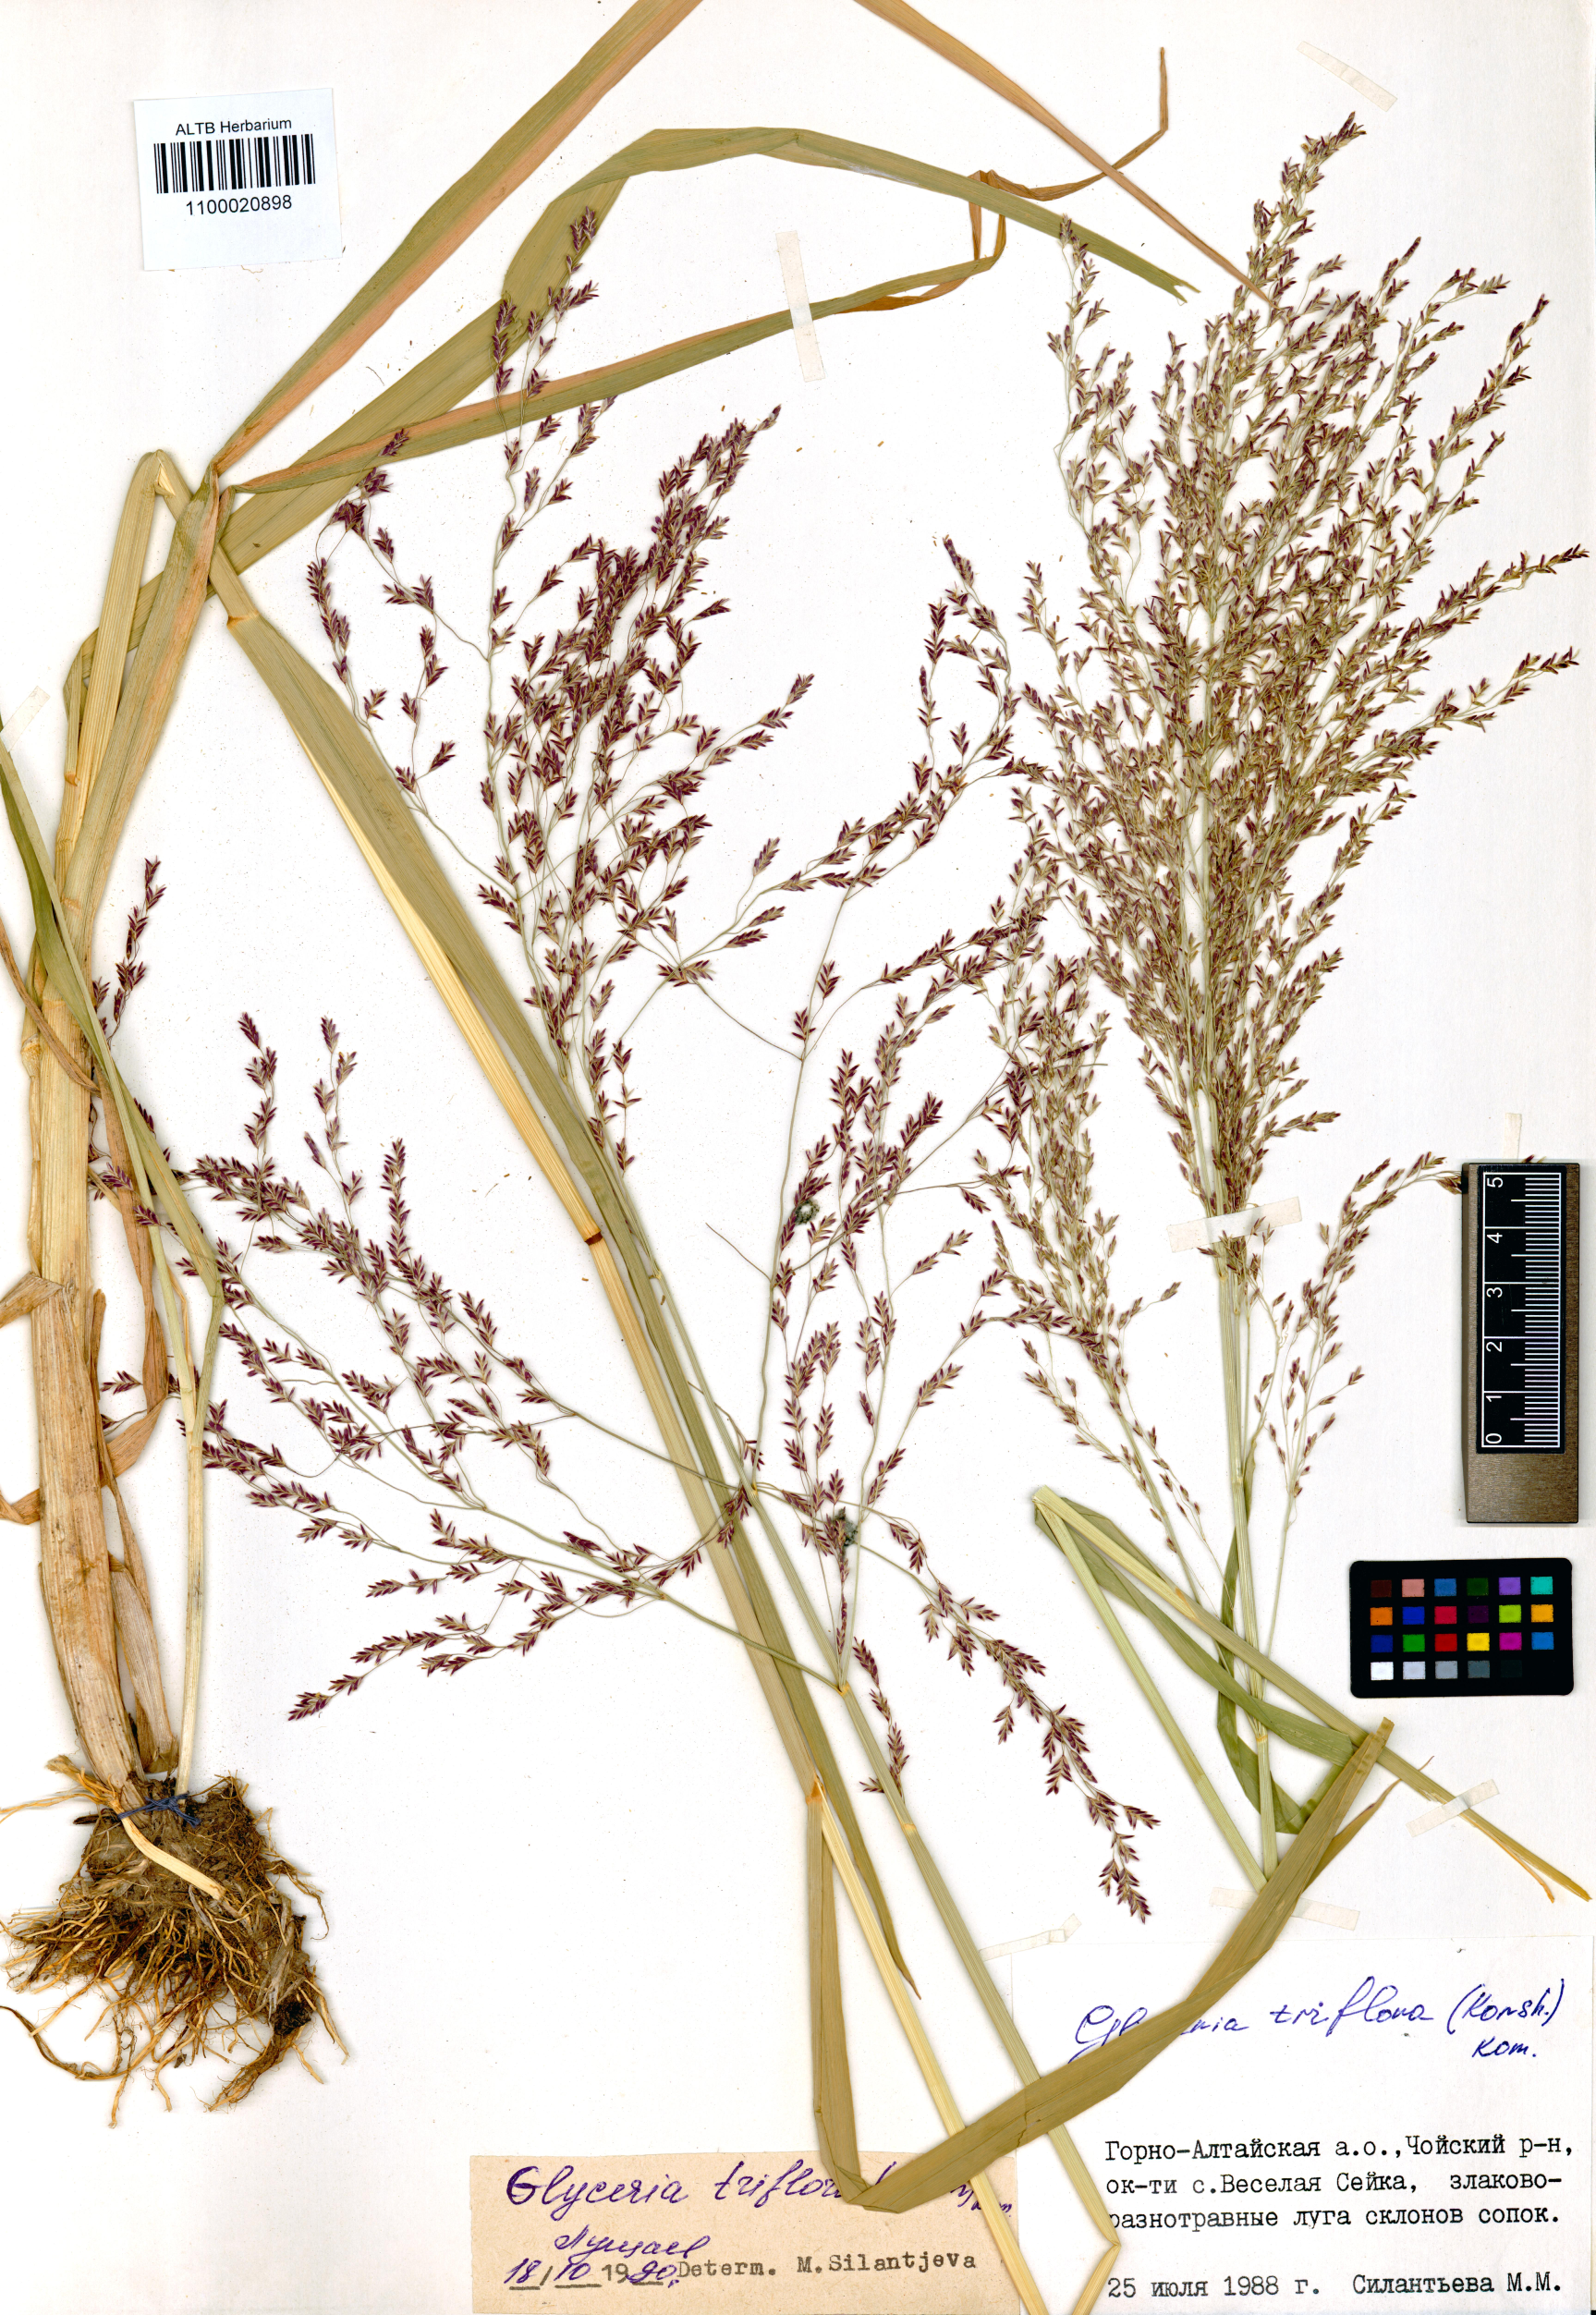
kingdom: Plantae
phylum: Tracheophyta
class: Liliopsida
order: Poales
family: Poaceae
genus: Glyceria
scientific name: Glyceria lithuanica
